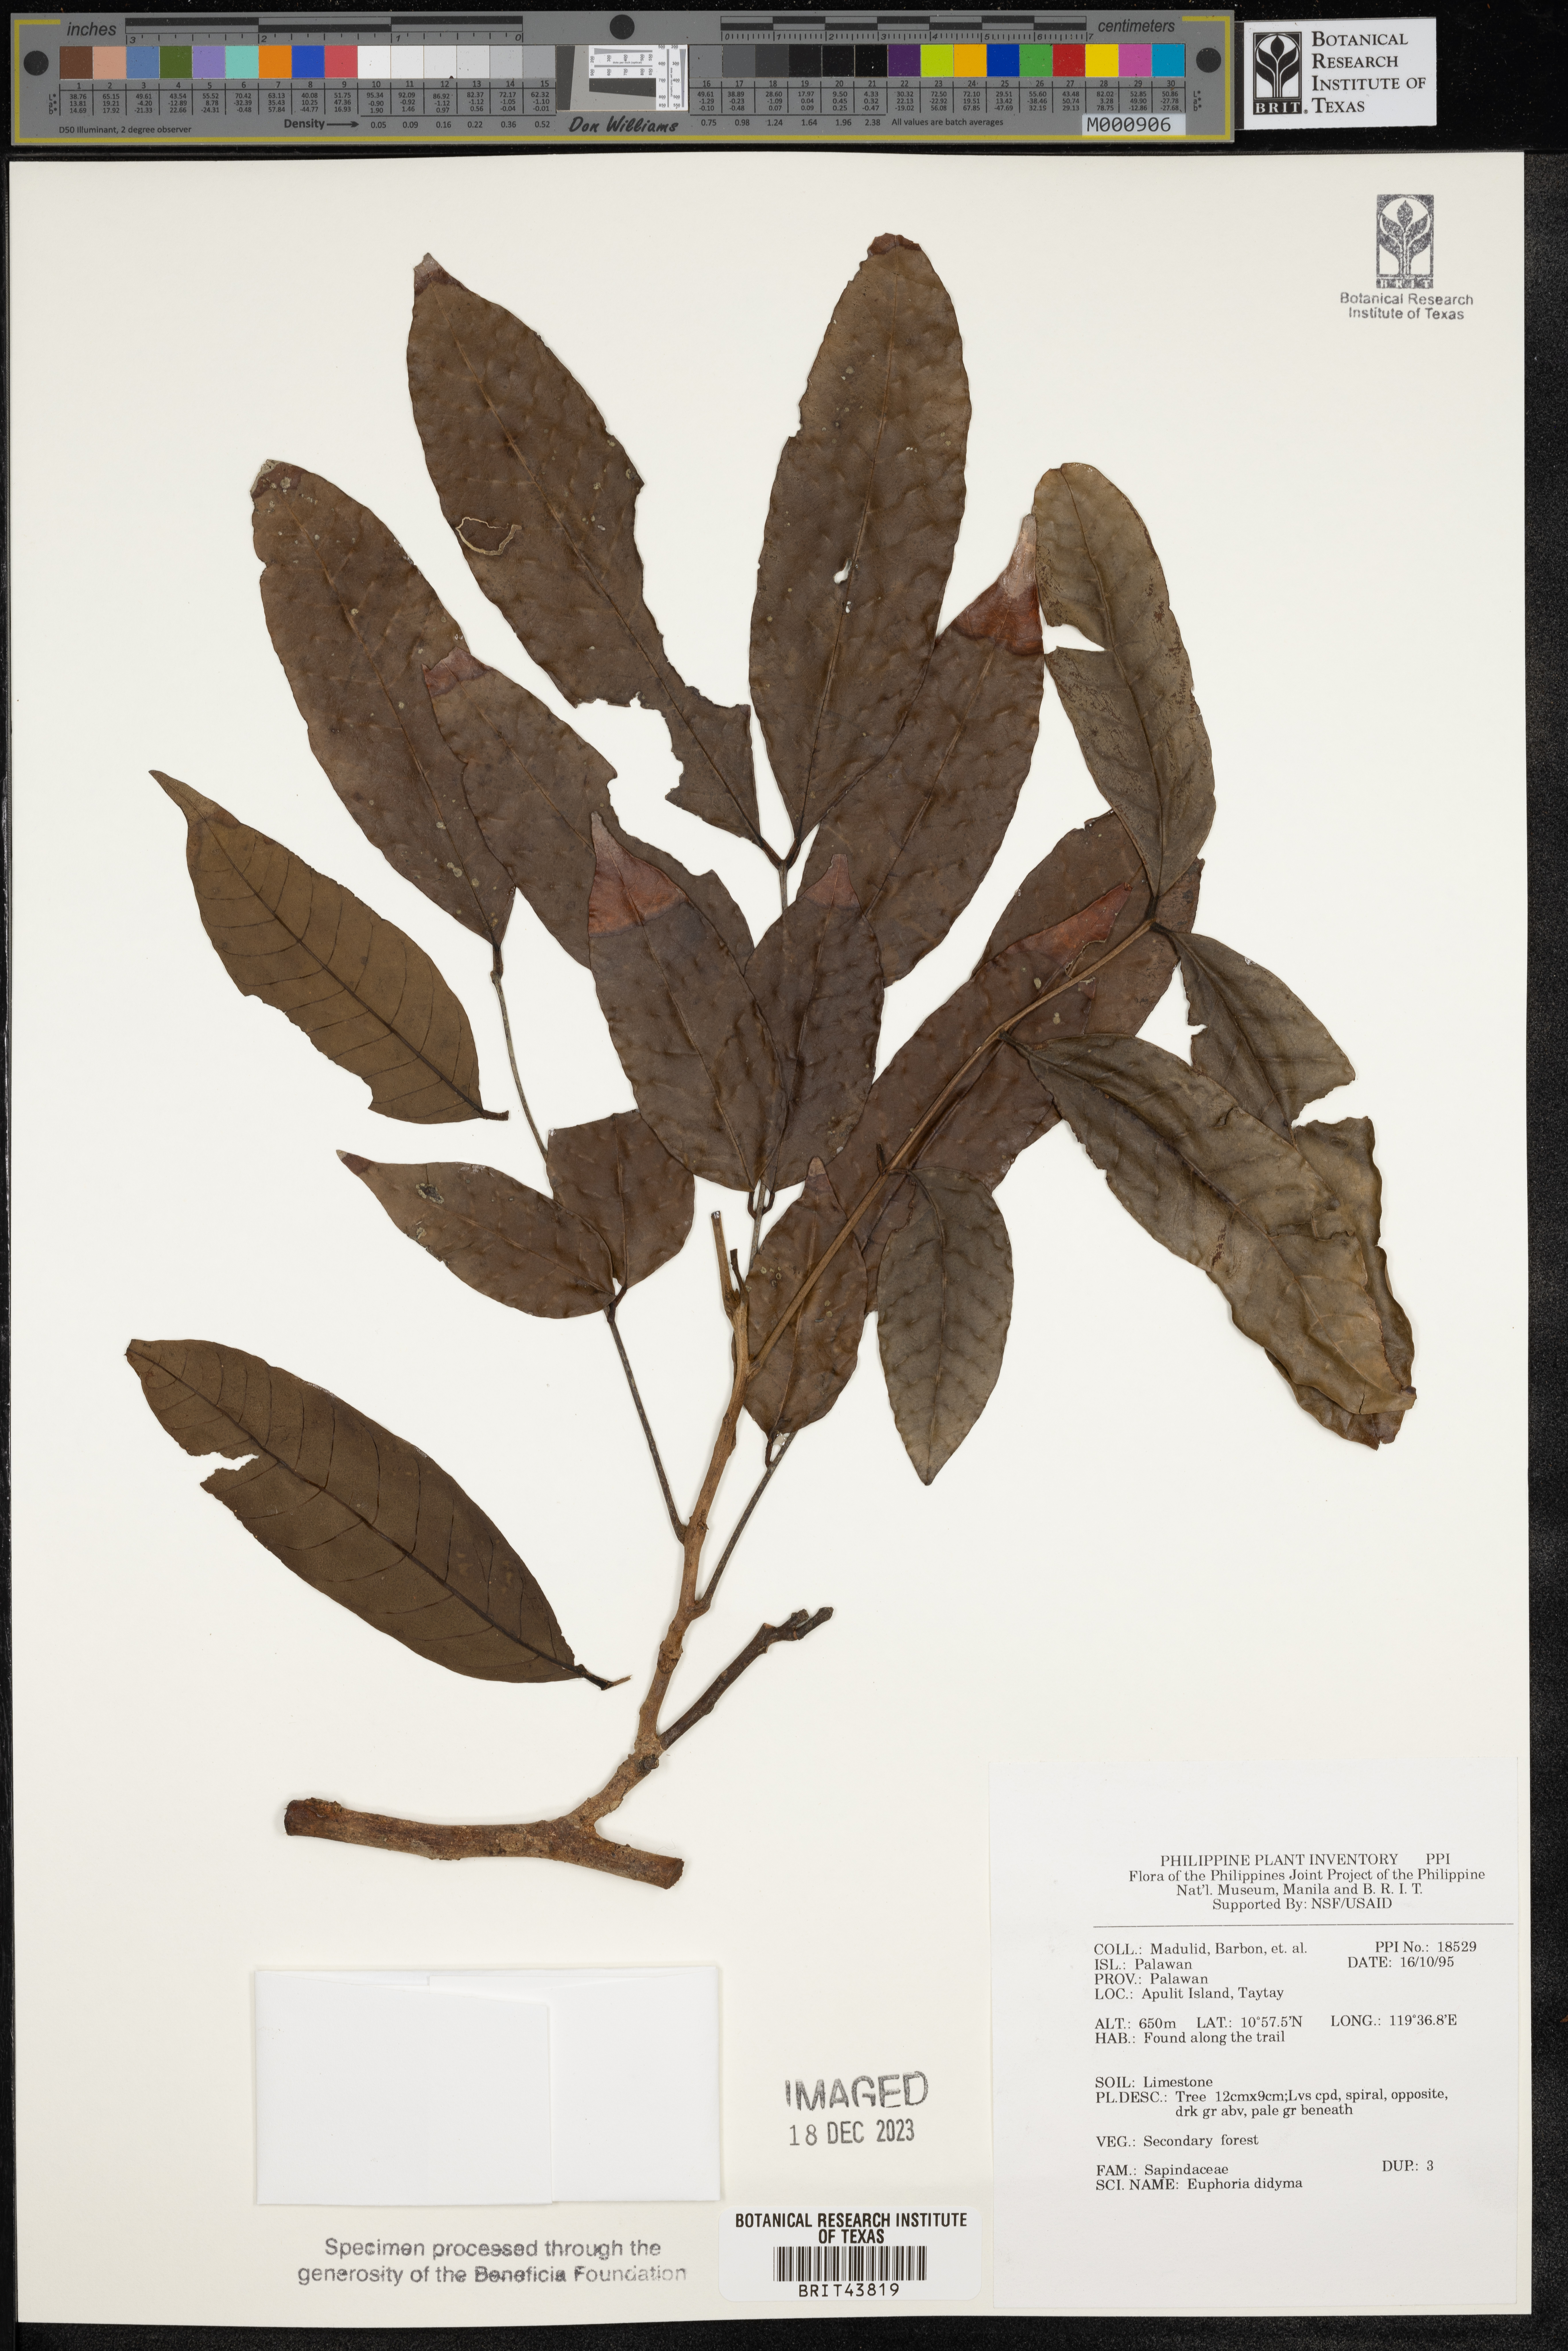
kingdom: Plantae
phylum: Tracheophyta
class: Magnoliopsida
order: Sapindales
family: Sapindaceae
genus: Litchi
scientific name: Litchi chinensis
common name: Litchi
